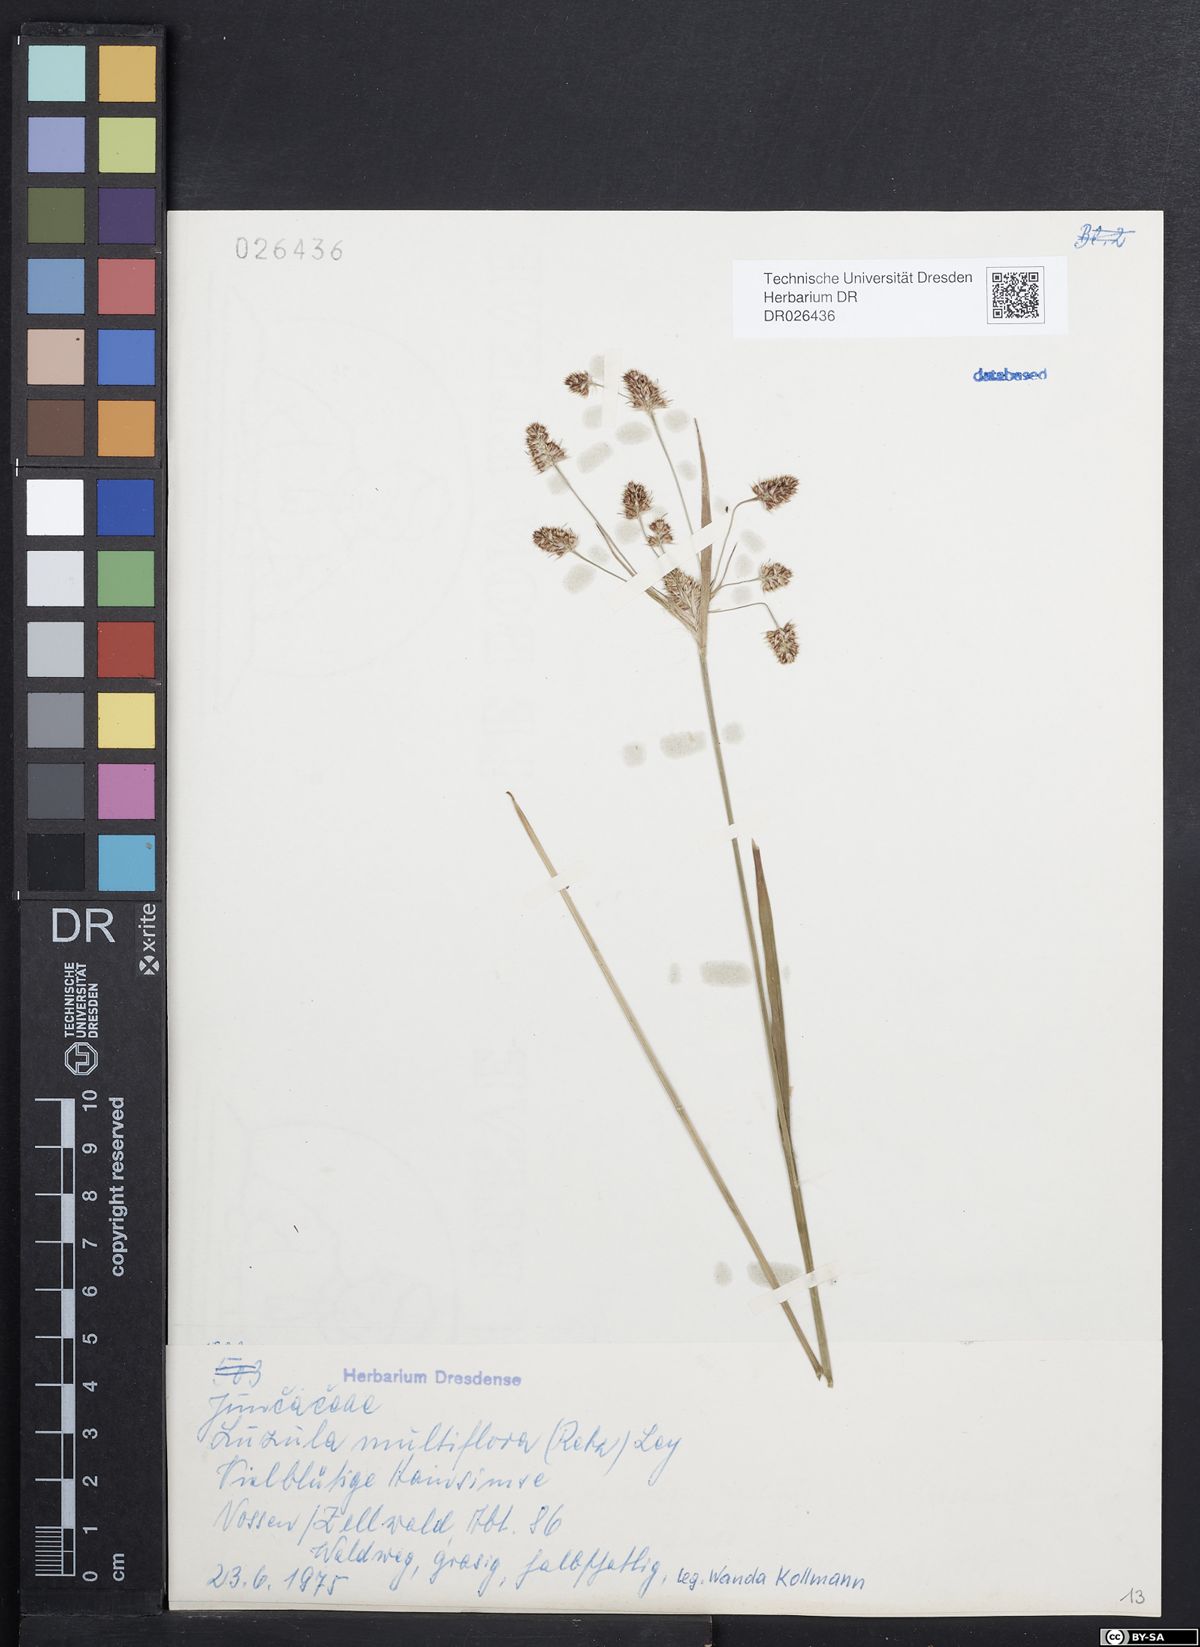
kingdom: Plantae
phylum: Tracheophyta
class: Liliopsida
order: Poales
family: Juncaceae
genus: Luzula
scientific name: Luzula multiflora
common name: Heath wood-rush
